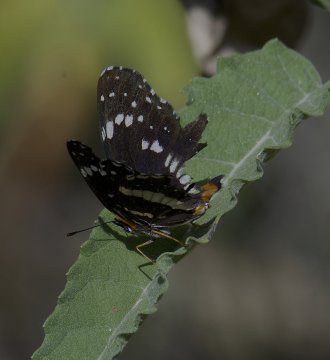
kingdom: Animalia
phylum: Arthropoda
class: Insecta
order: Lepidoptera
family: Nymphalidae
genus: Chlosyne
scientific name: Chlosyne lacinia
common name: Bordered Patch
